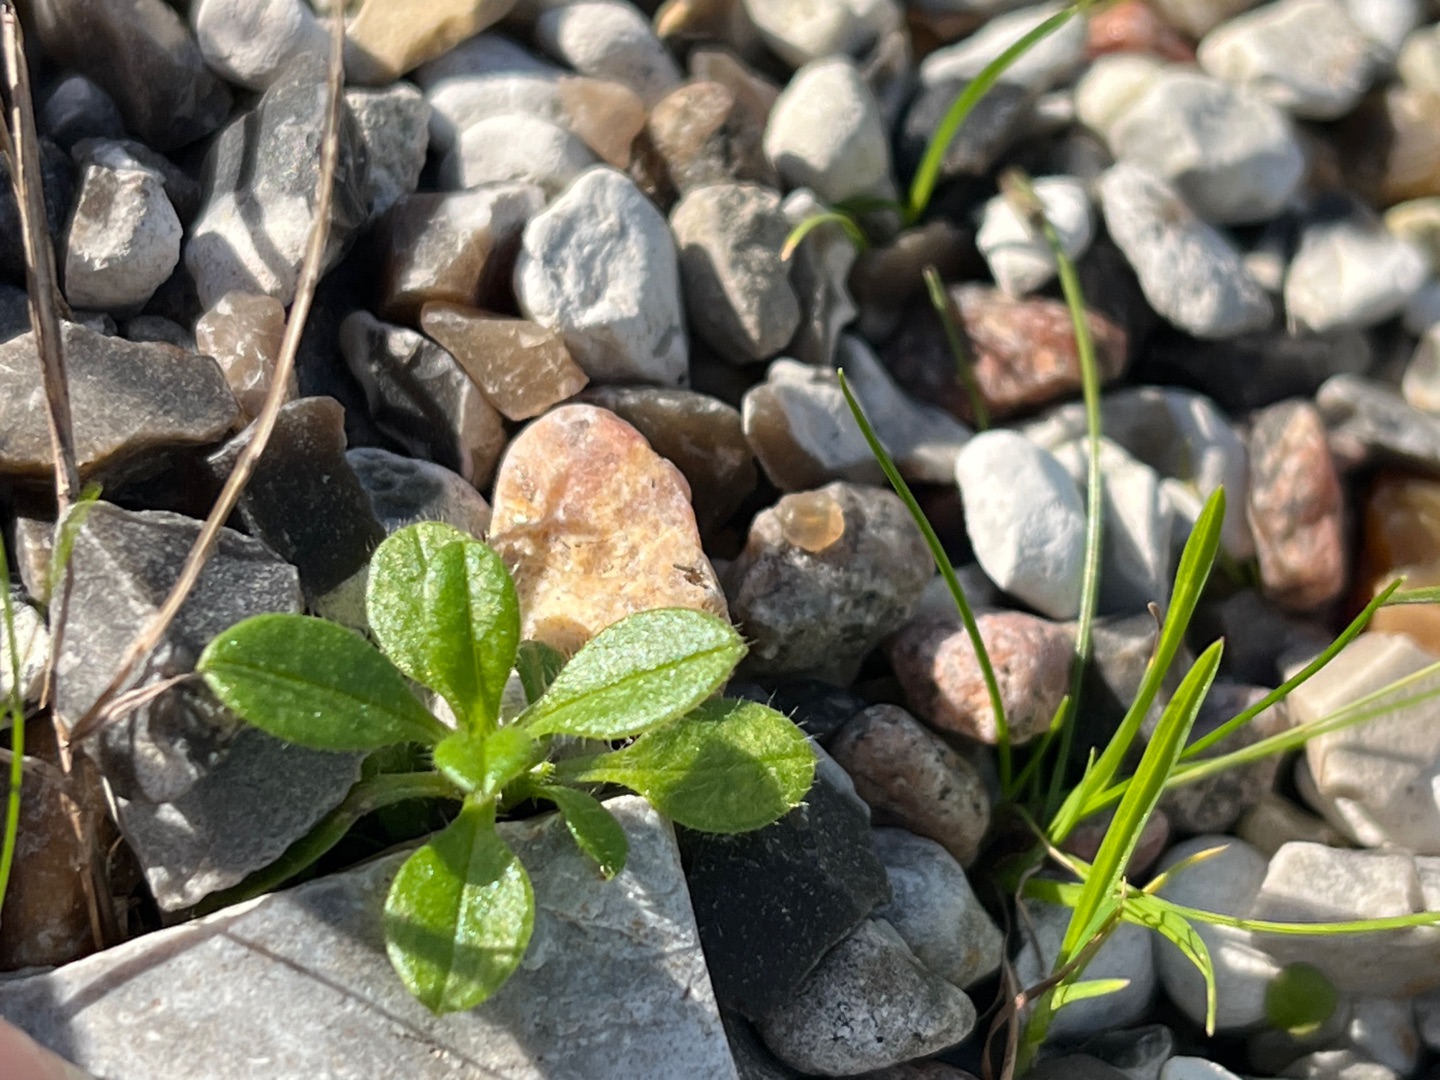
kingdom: Plantae
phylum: Tracheophyta
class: Magnoliopsida
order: Caryophyllales
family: Caryophyllaceae
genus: Cerastium
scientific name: Cerastium
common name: Hønsetarmslægten
